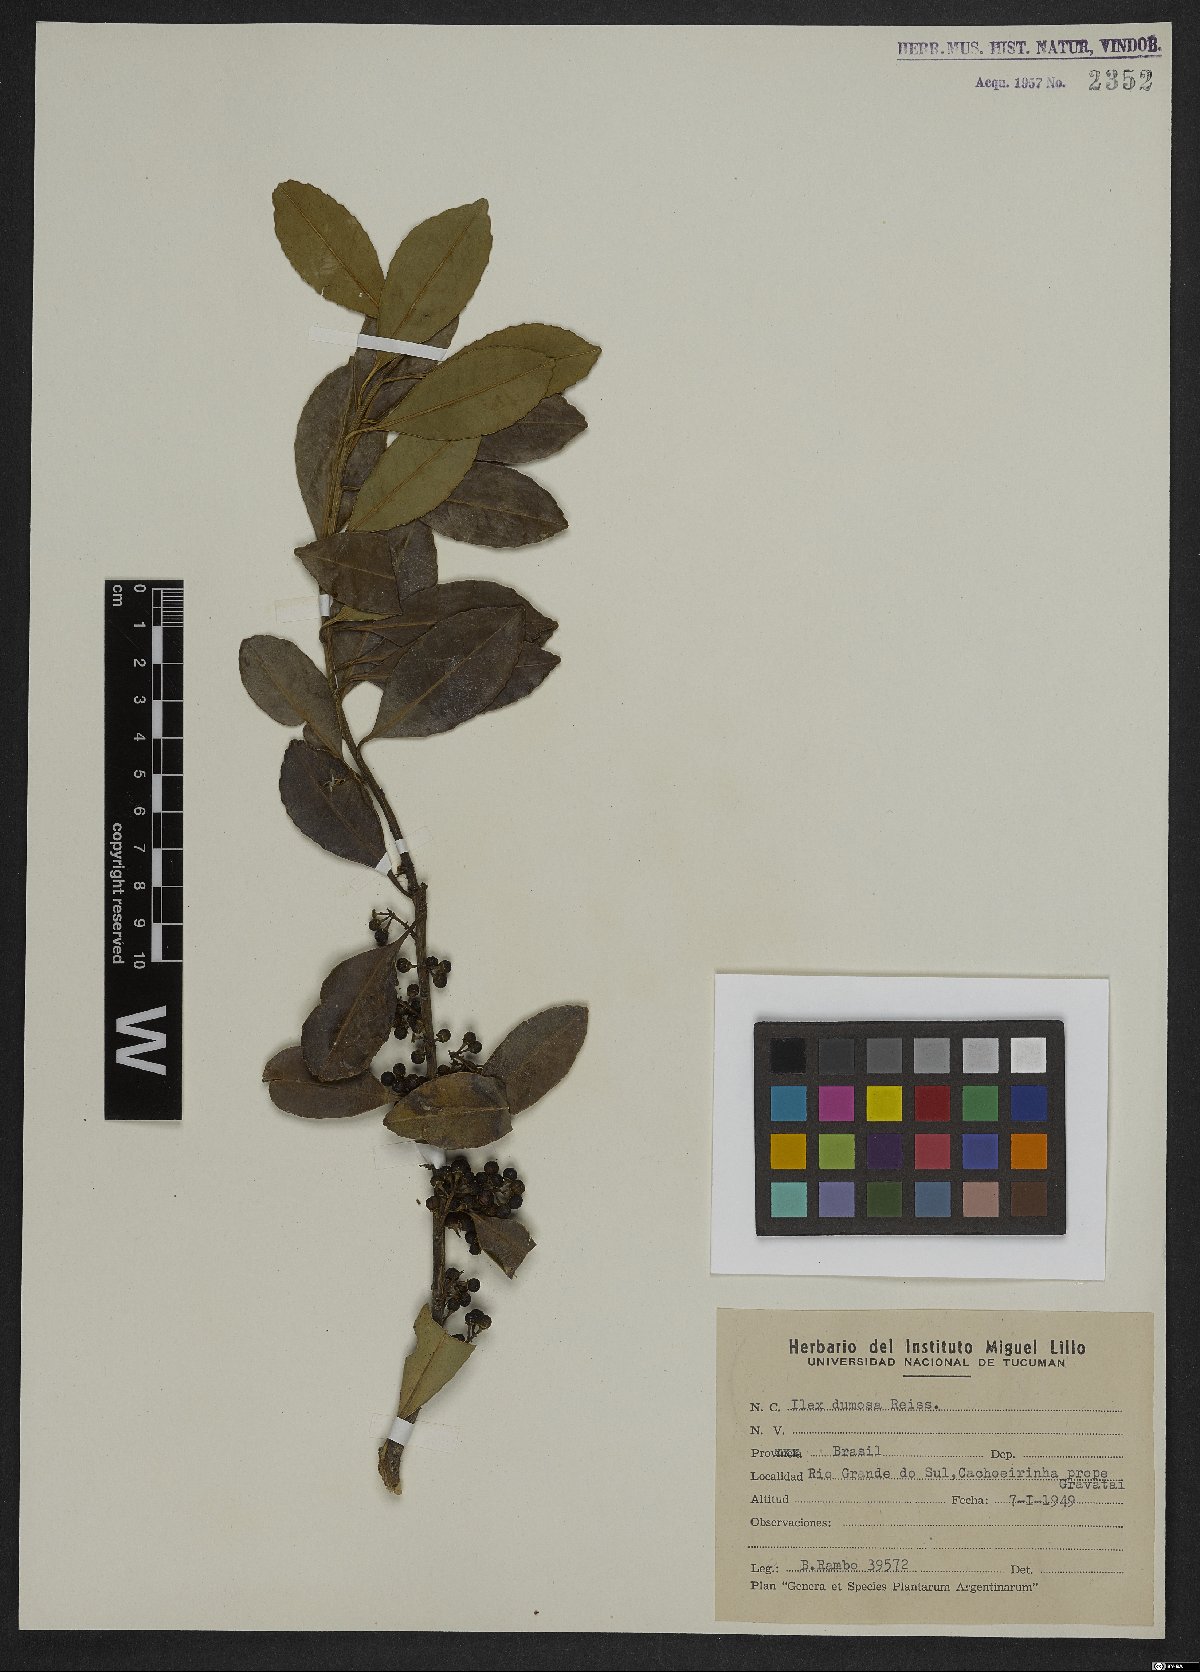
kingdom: Plantae
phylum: Tracheophyta
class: Magnoliopsida
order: Aquifoliales
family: Aquifoliaceae
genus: Ilex
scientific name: Ilex dumosa
